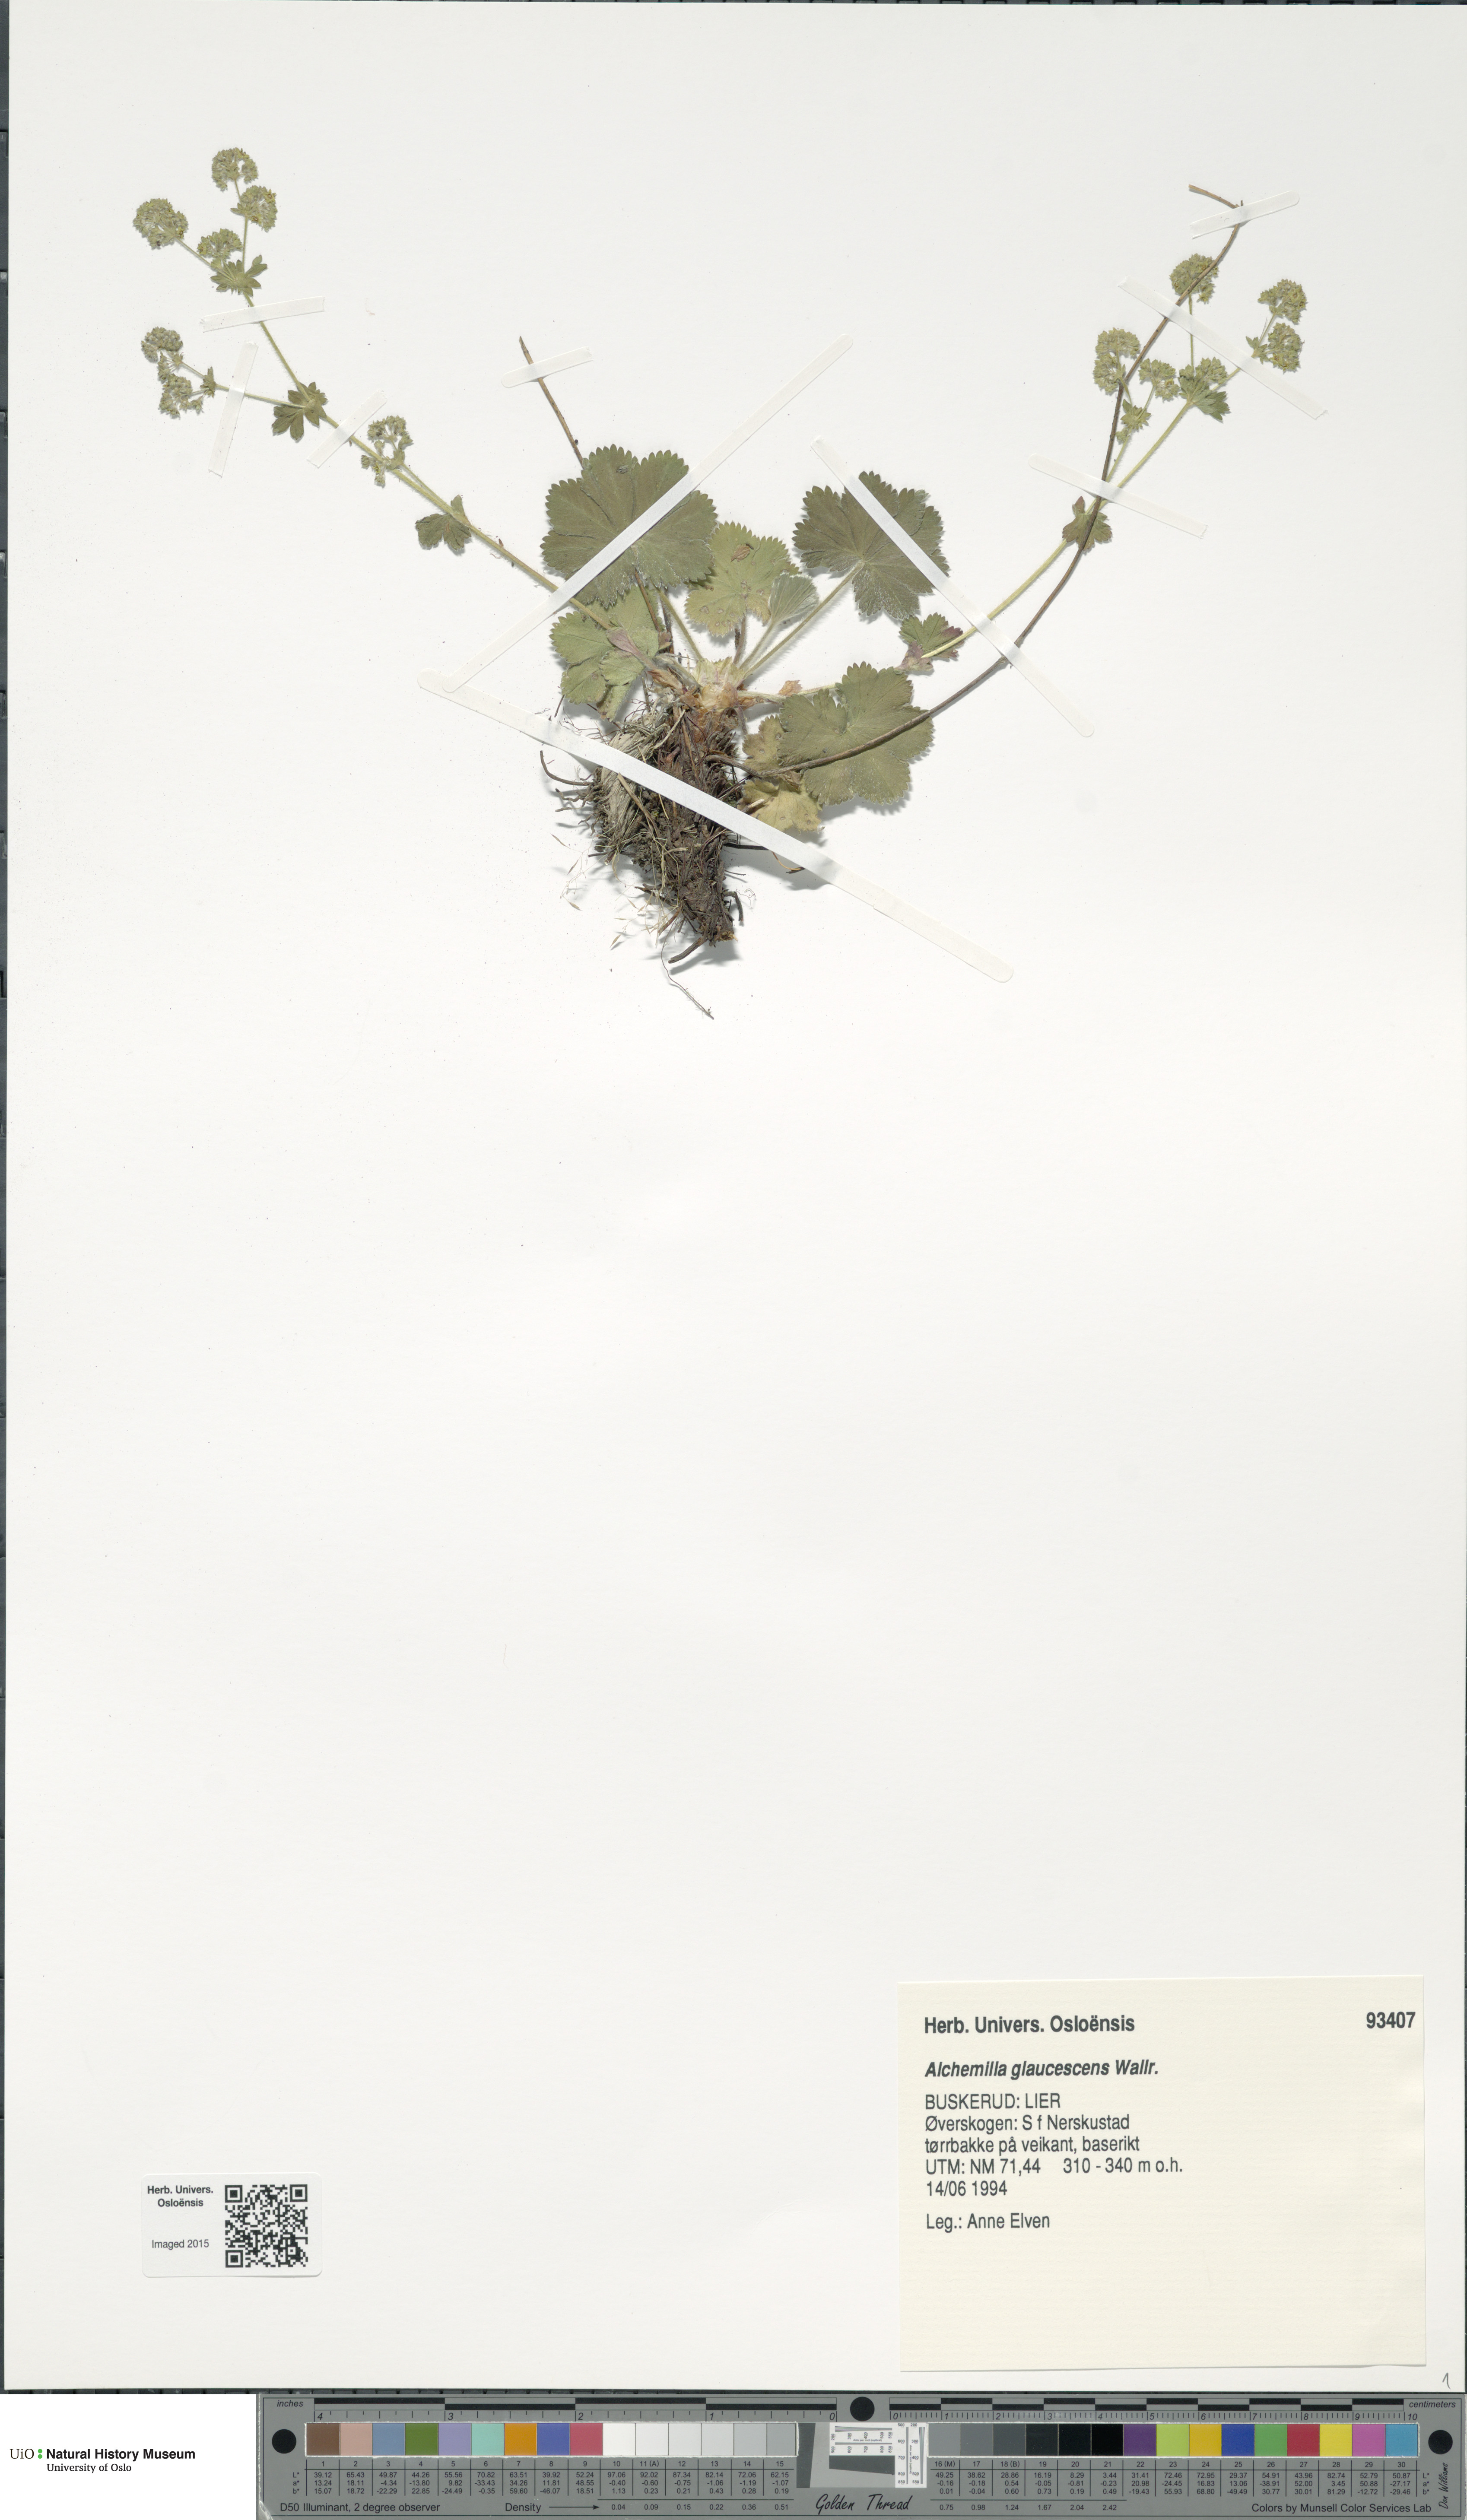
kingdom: Plantae
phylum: Tracheophyta
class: Magnoliopsida
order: Rosales
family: Rosaceae
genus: Alchemilla
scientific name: Alchemilla glaucescens
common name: Silky lady's mantle
